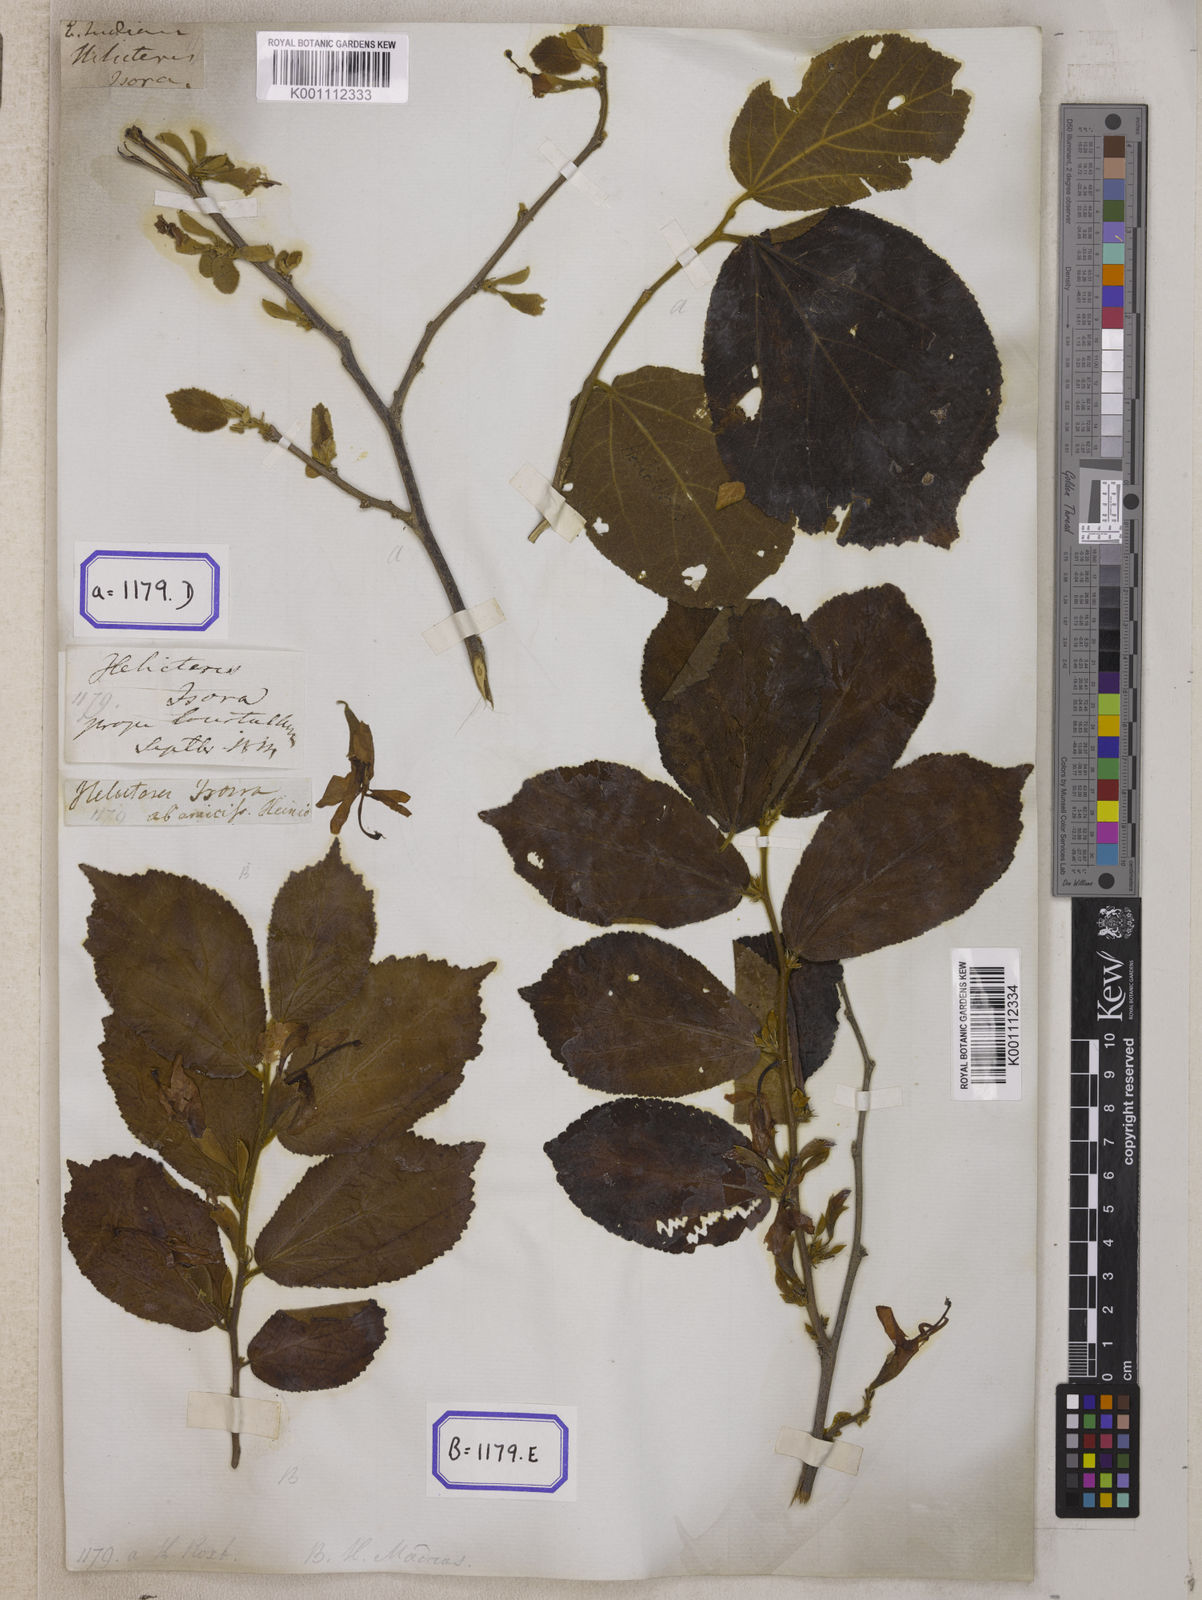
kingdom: Plantae
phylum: Tracheophyta
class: Magnoliopsida
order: Malvales
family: Malvaceae
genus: Helicteres
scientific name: Helicteres isora
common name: East indian screwtree
